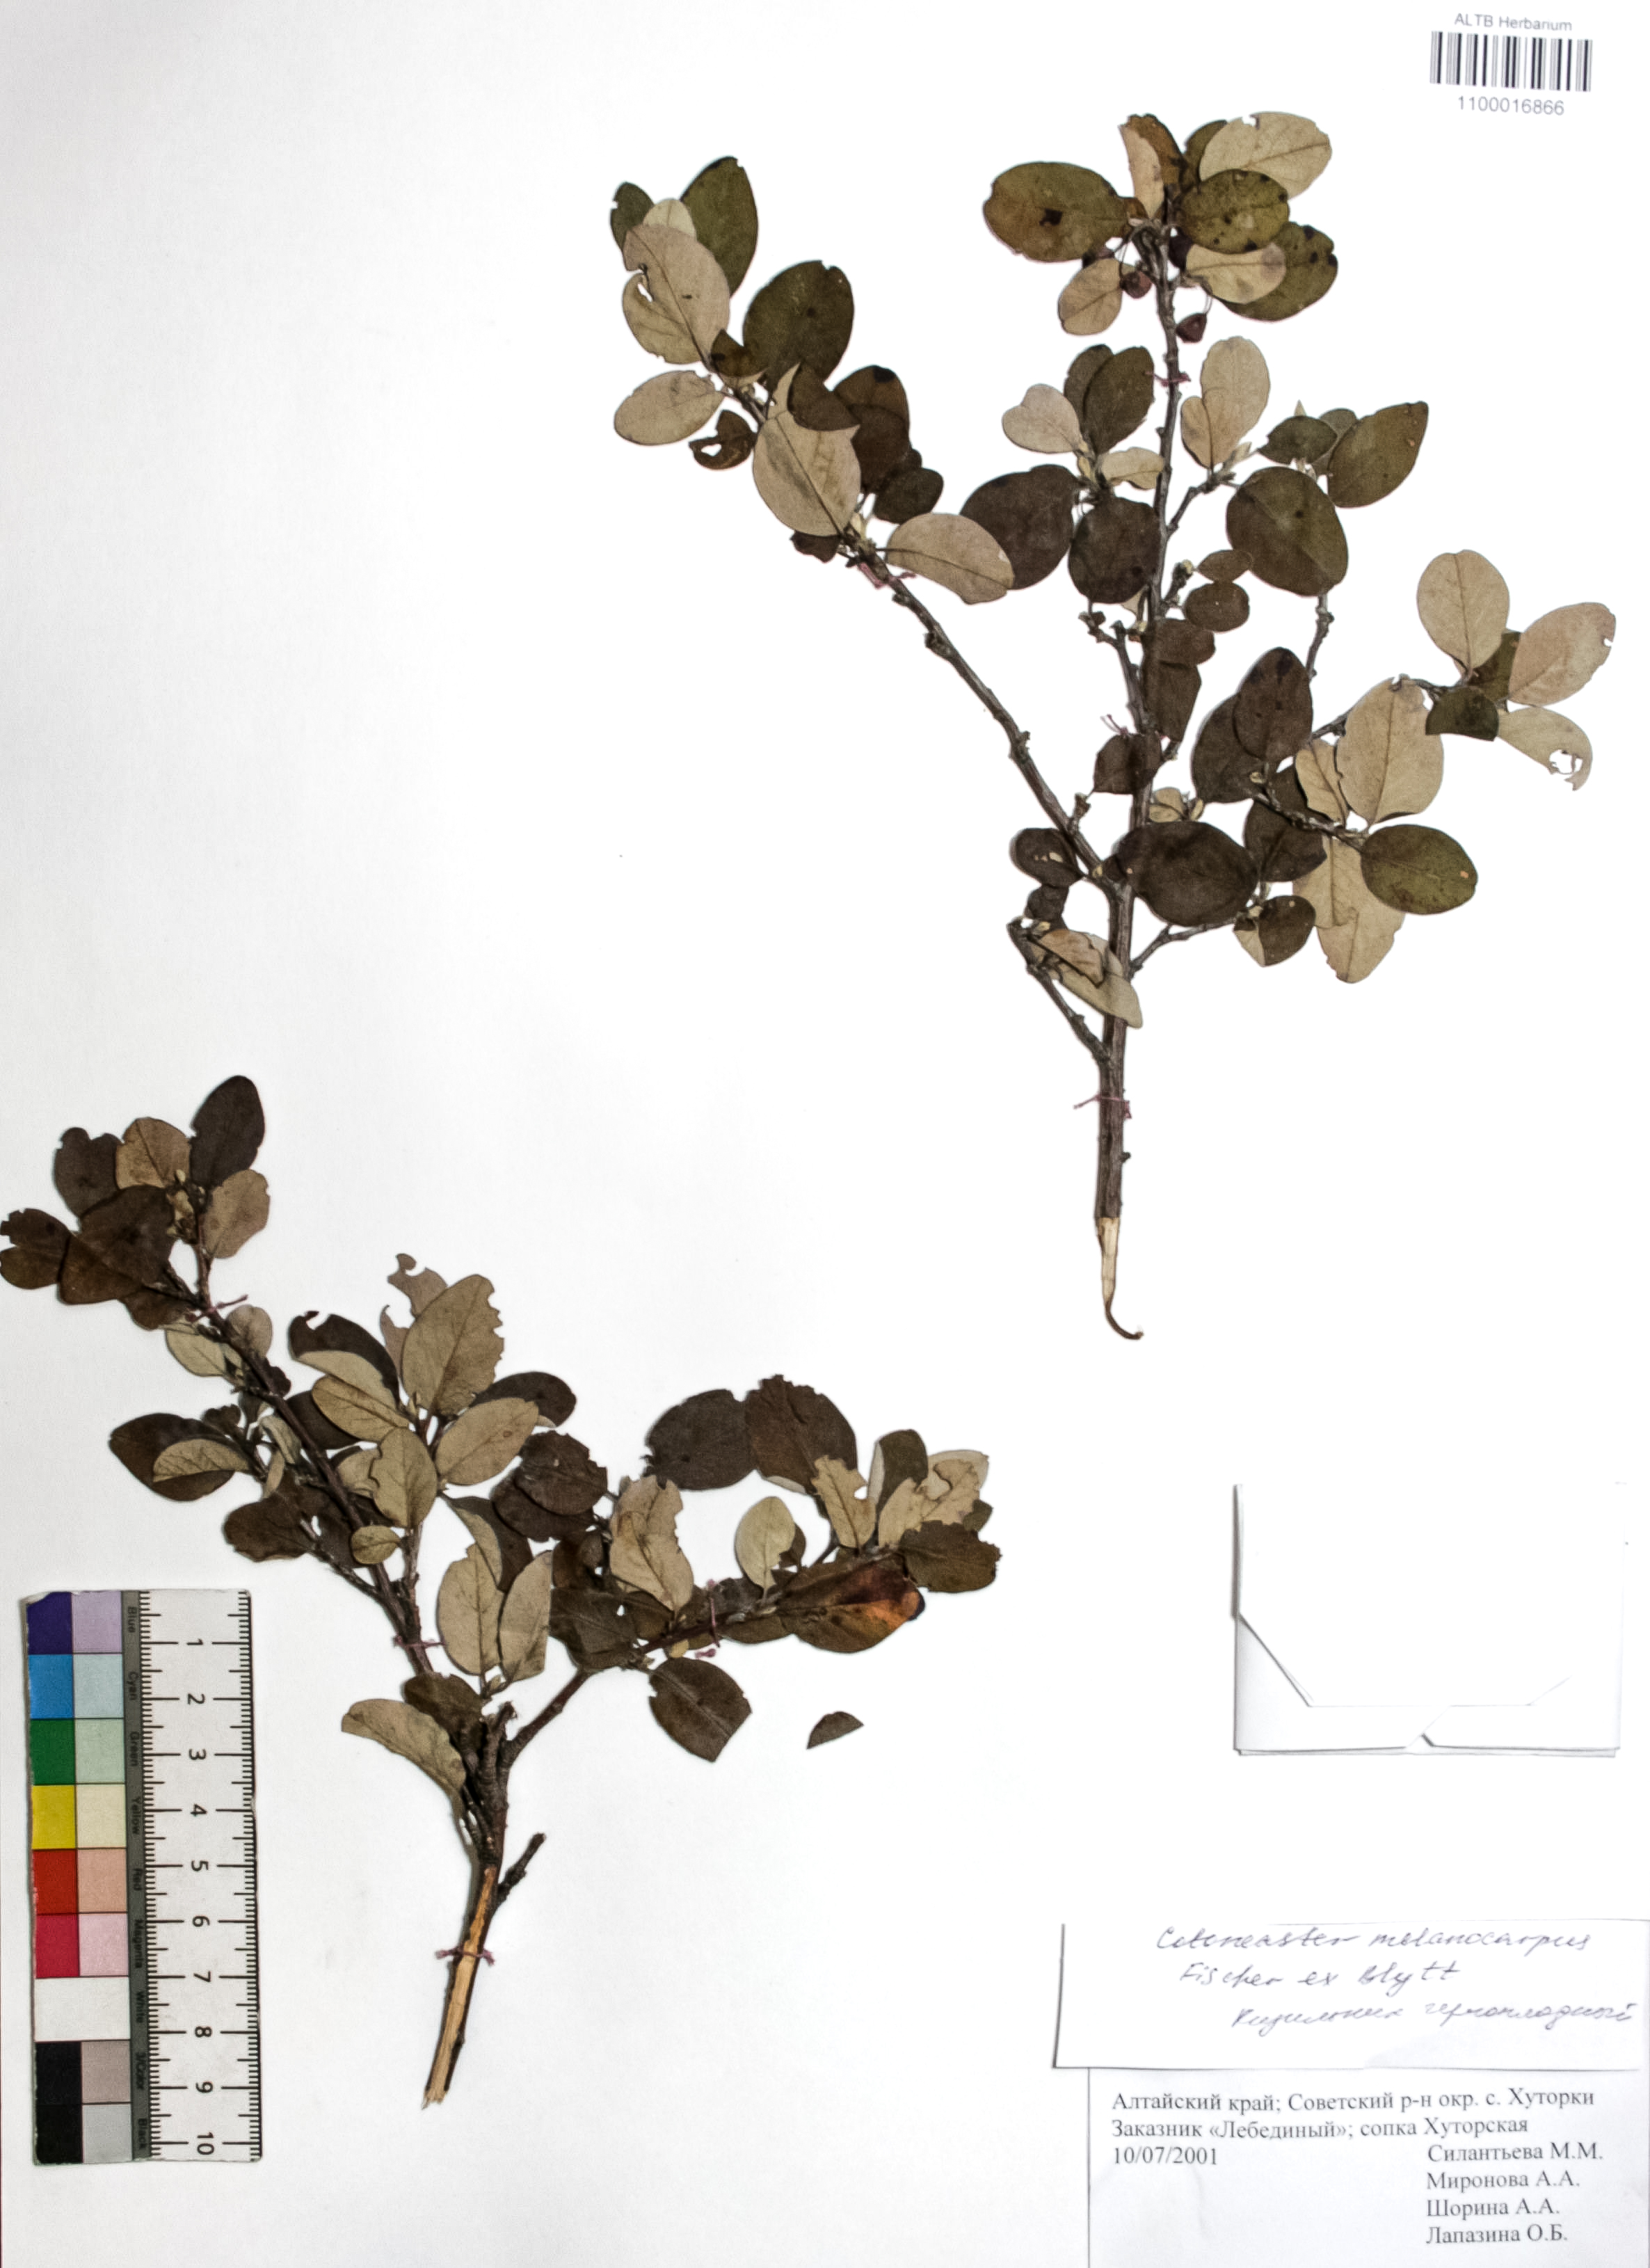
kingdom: Plantae
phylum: Tracheophyta
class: Magnoliopsida
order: Rosales
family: Rosaceae
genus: Cotoneaster
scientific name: Cotoneaster niger
